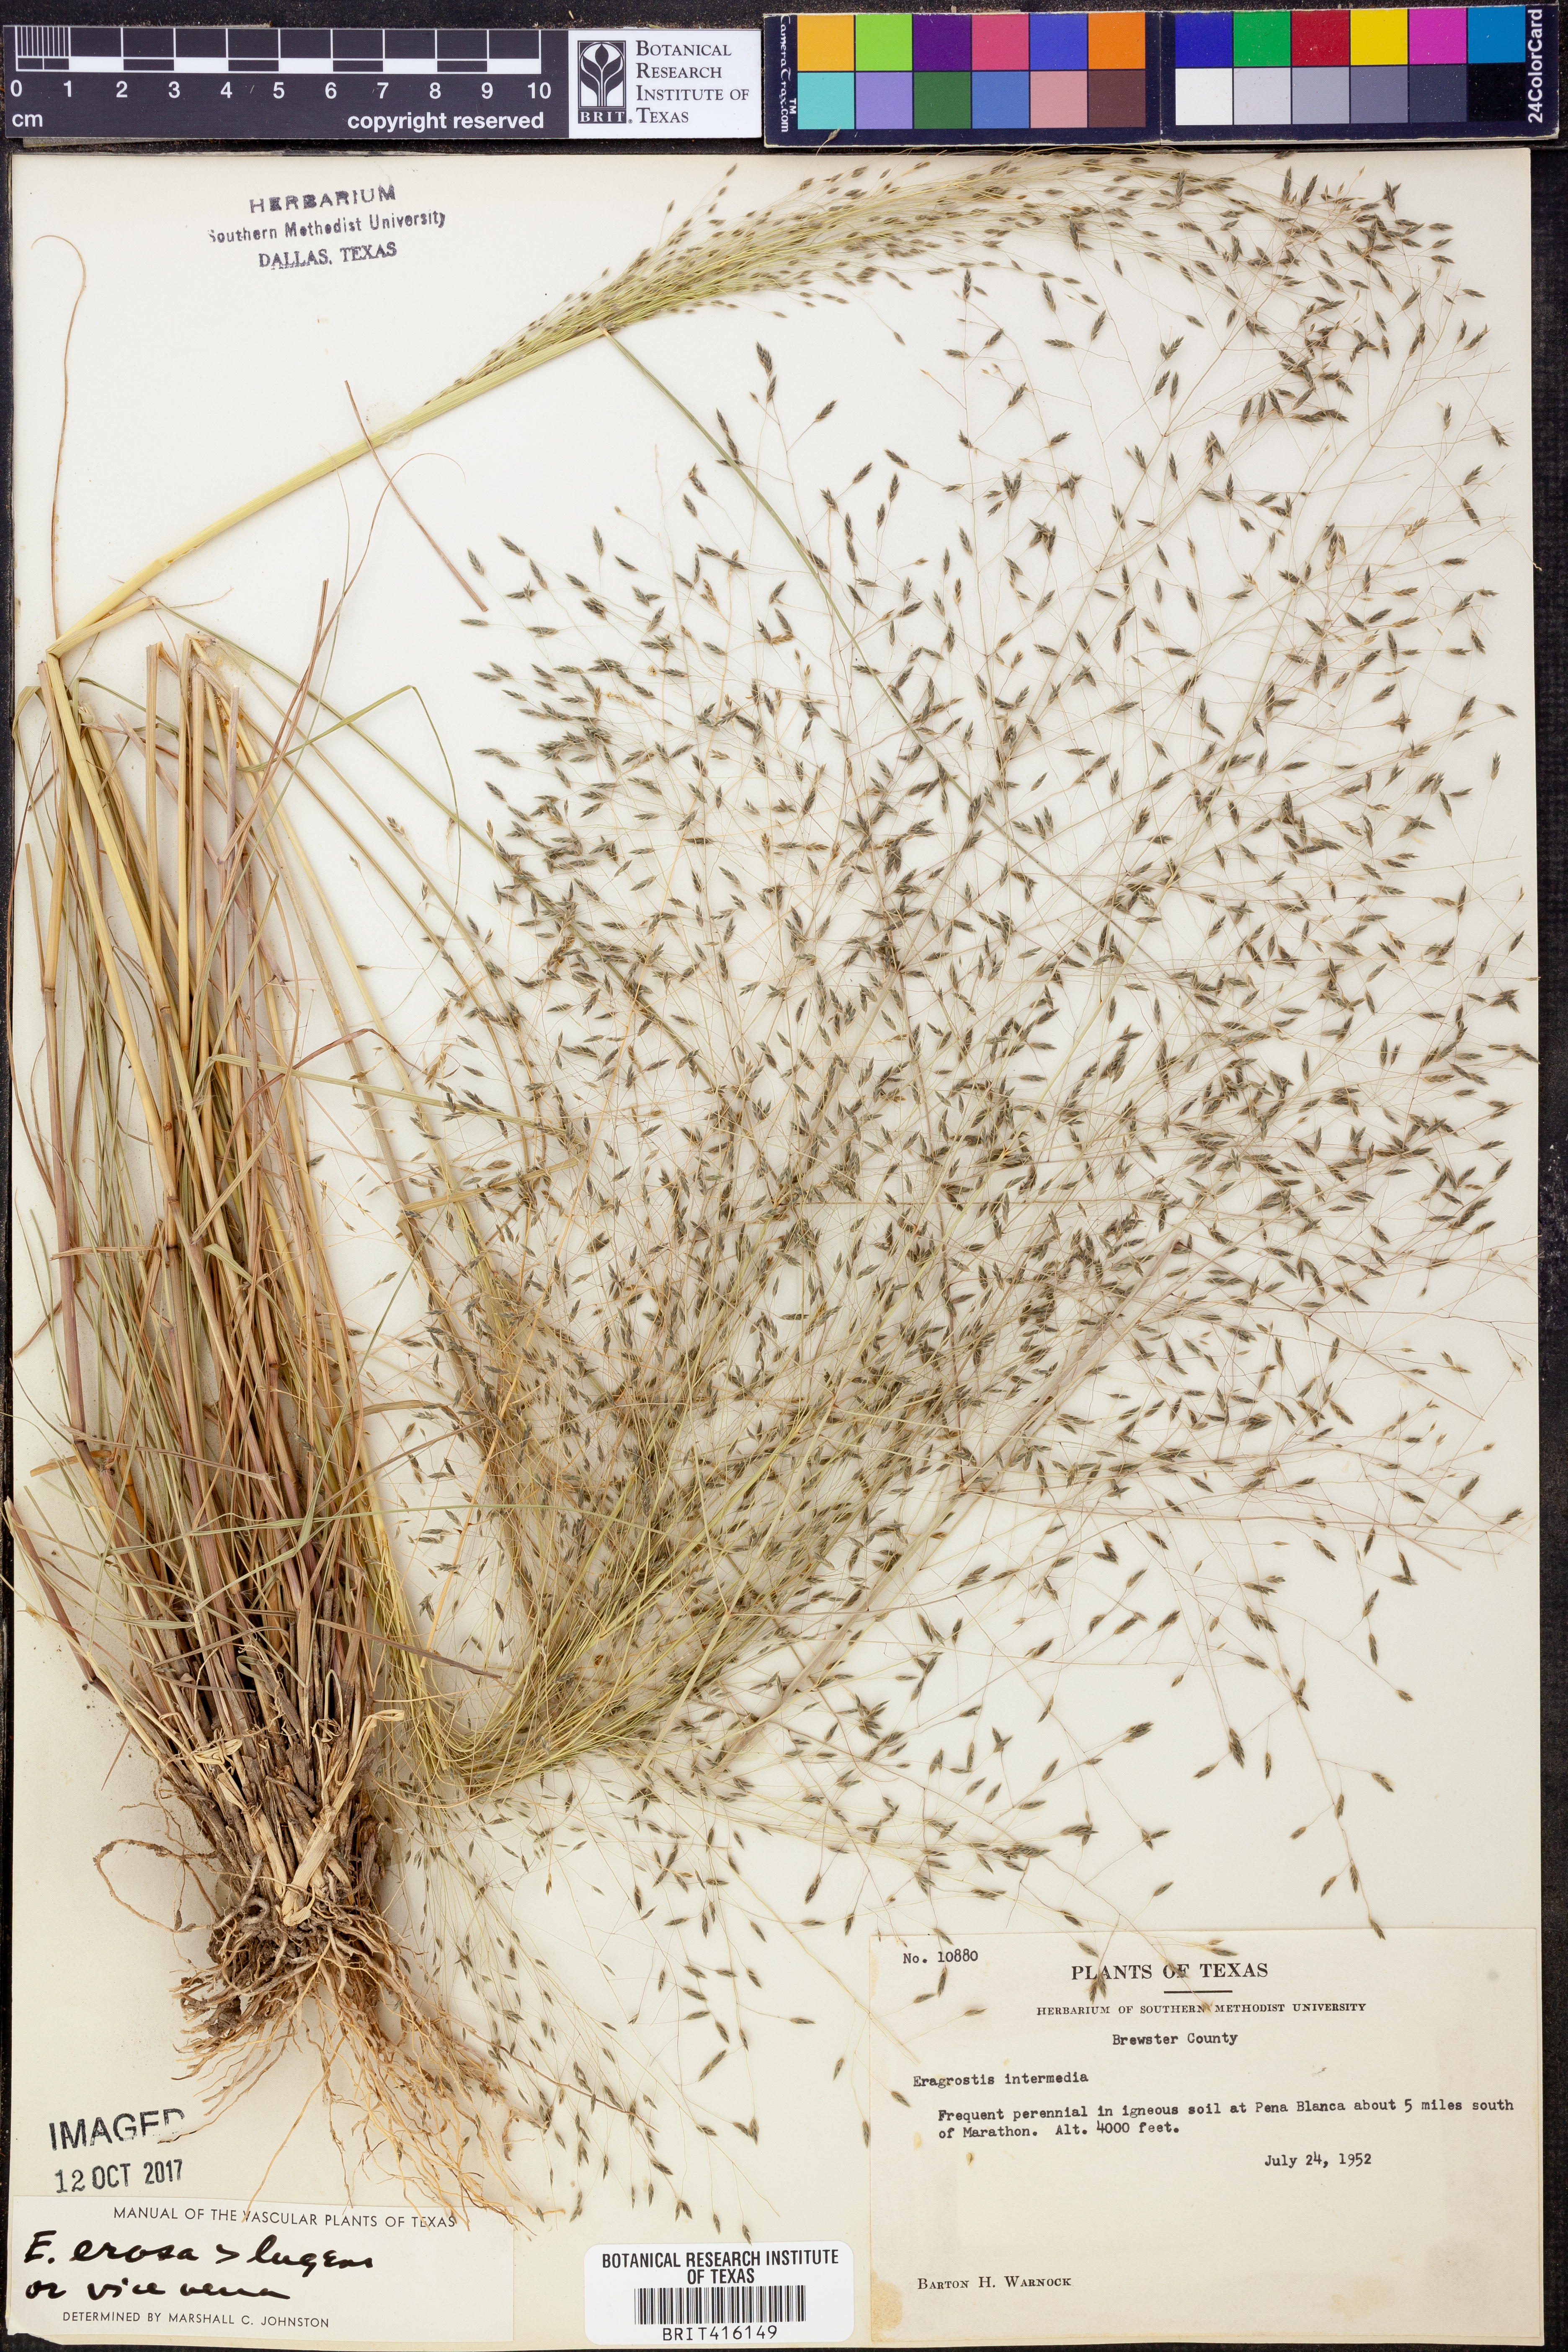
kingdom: Plantae
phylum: Tracheophyta
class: Liliopsida
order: Poales
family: Poaceae
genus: Eragrostis
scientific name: Eragrostis erosa
